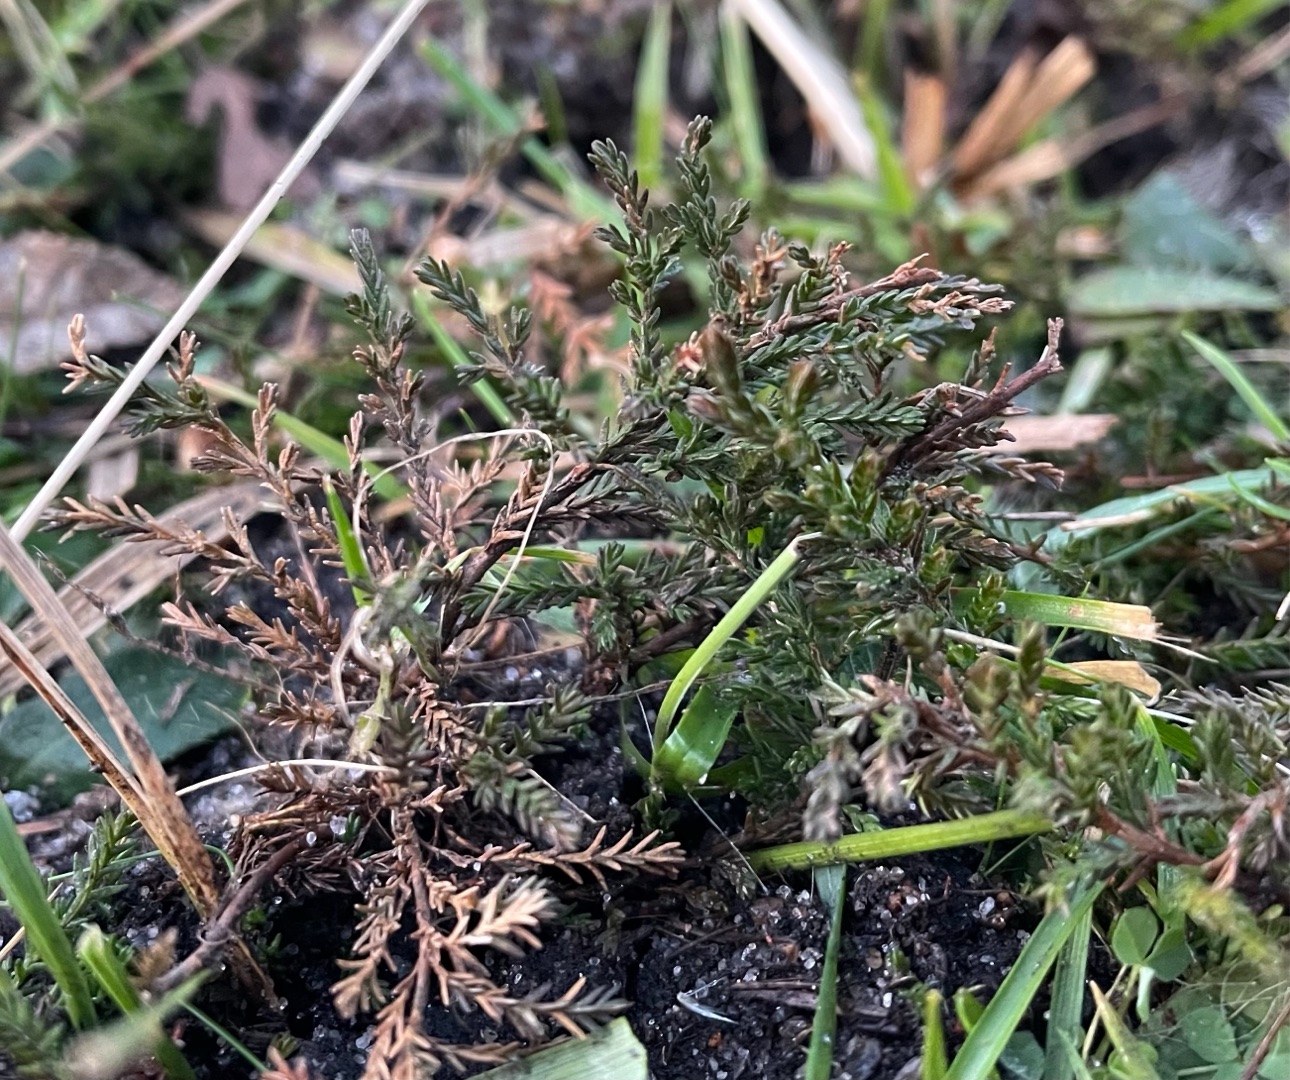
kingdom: Plantae
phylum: Tracheophyta
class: Magnoliopsida
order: Ericales
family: Ericaceae
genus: Calluna
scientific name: Calluna vulgaris
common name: Hedelyng
